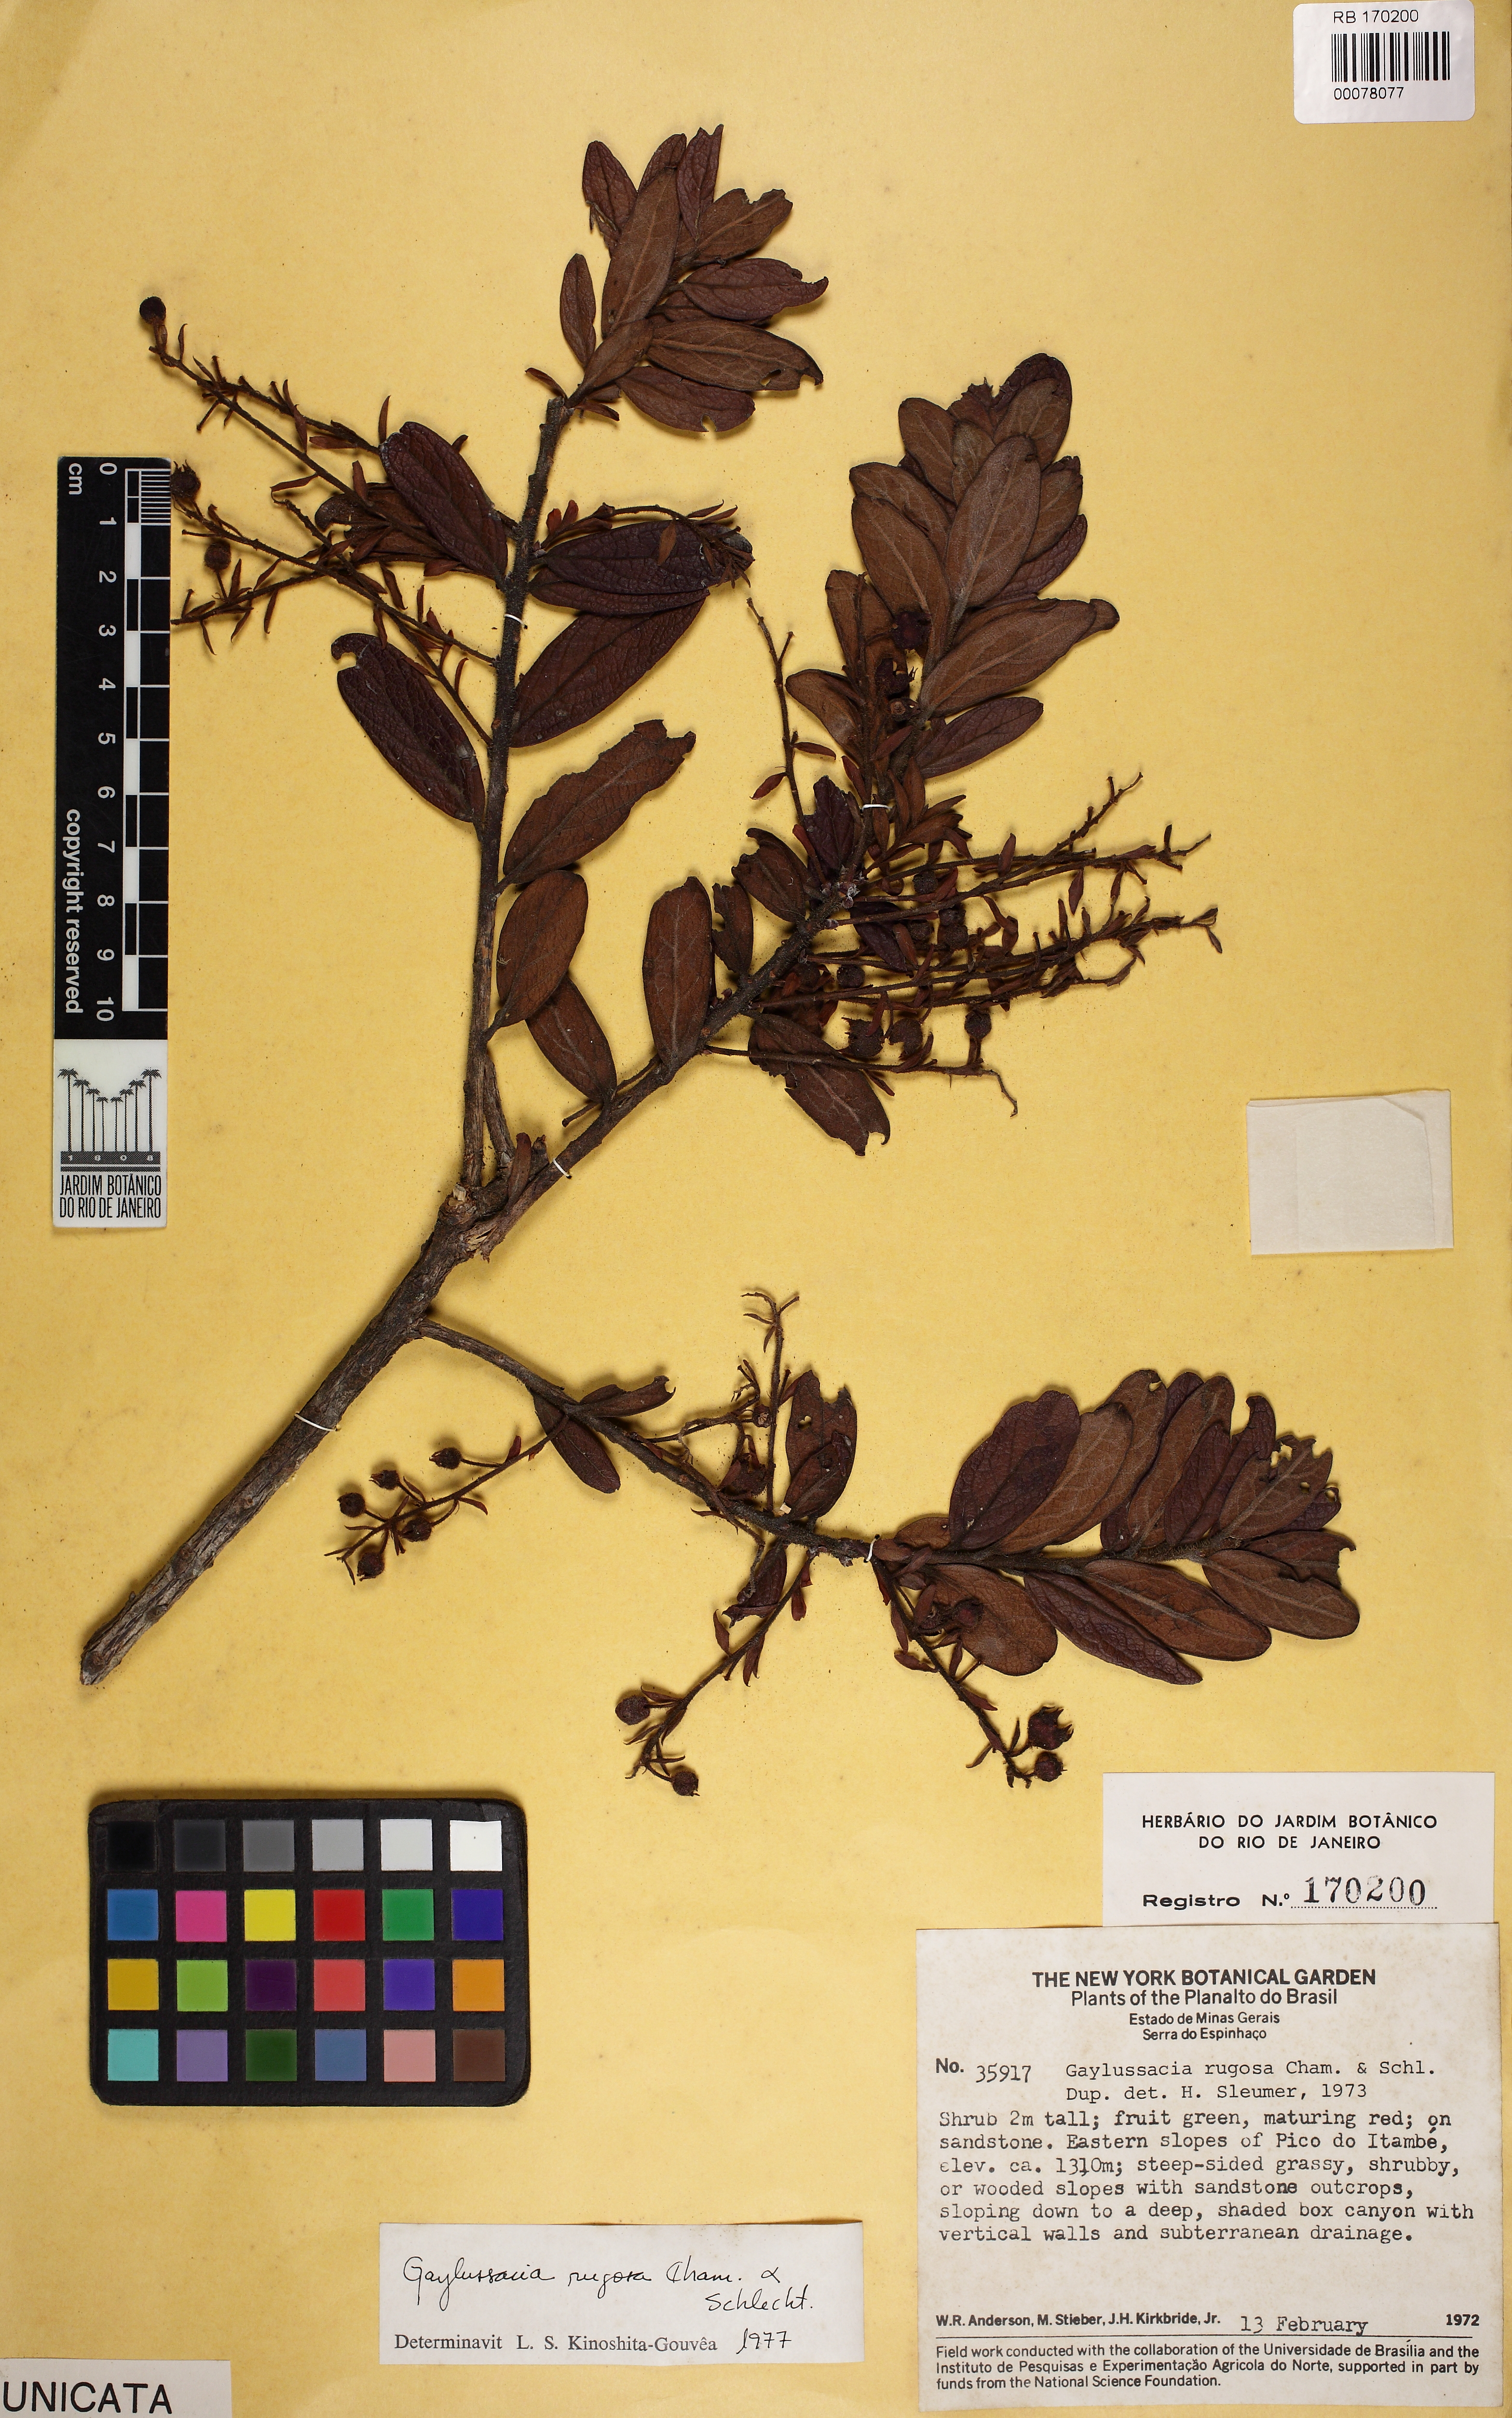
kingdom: Plantae
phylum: Tracheophyta
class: Magnoliopsida
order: Ericales
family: Ericaceae
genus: Gaylussacia
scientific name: Gaylussacia rugosa
